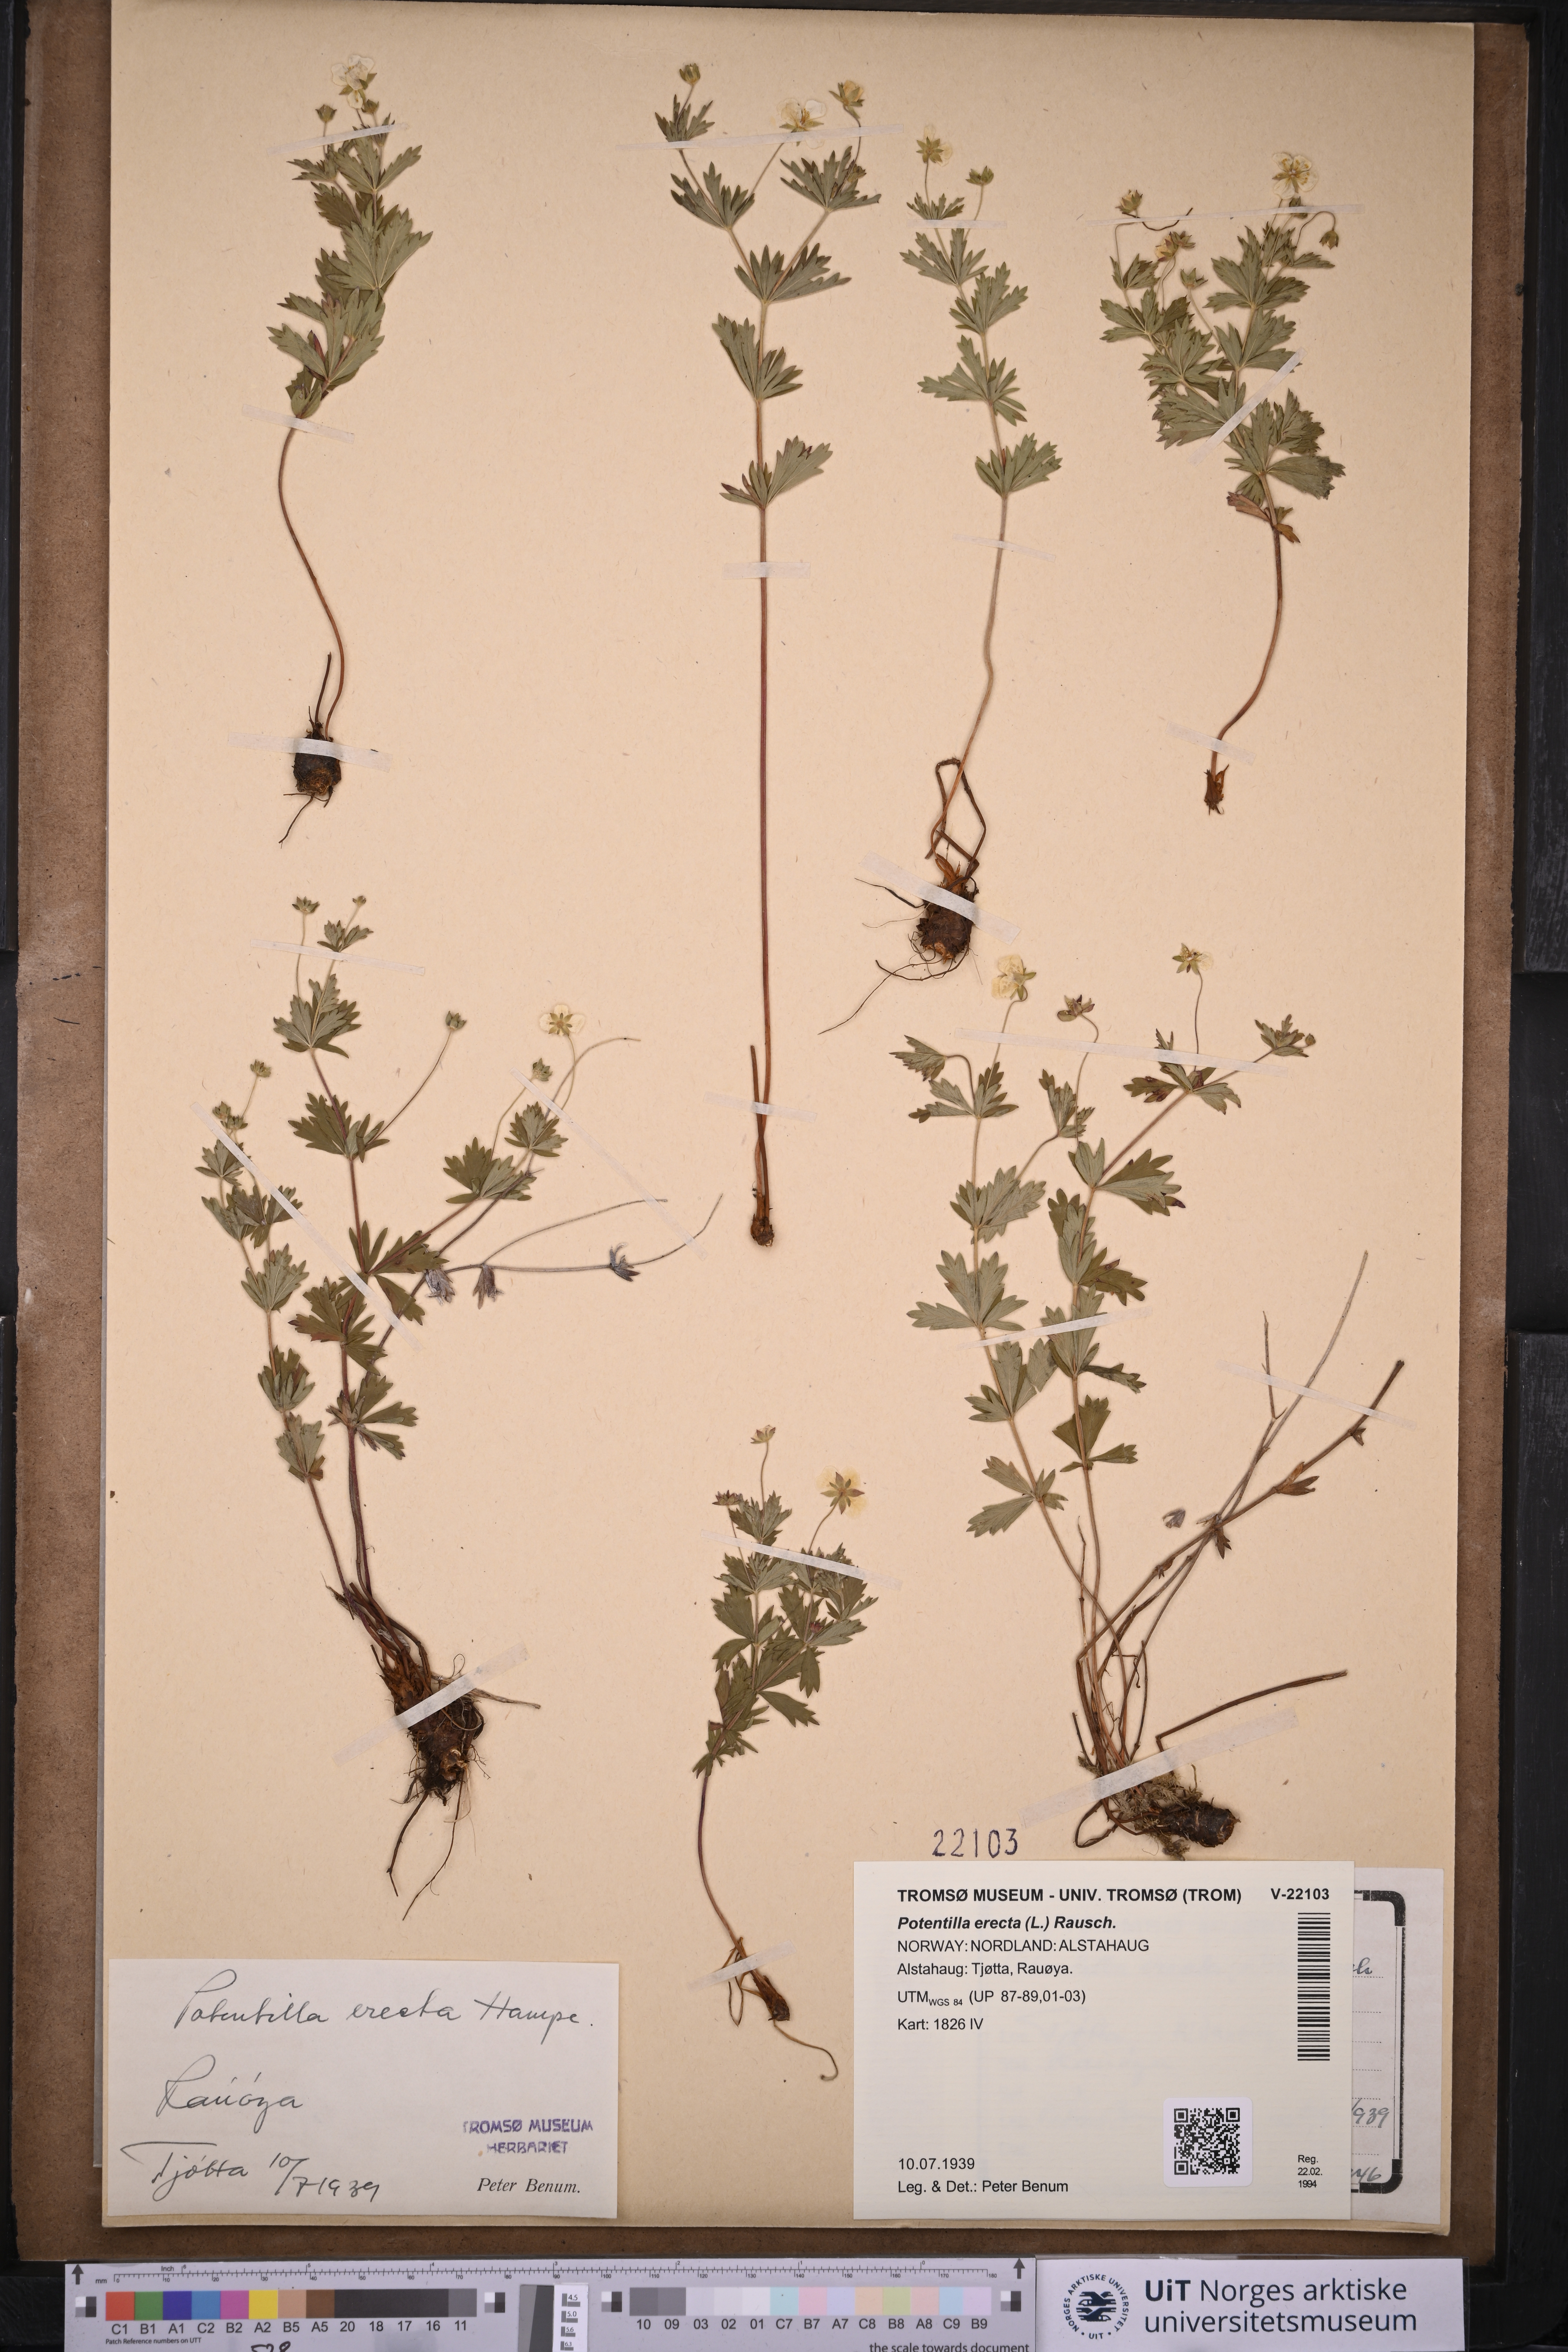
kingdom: Plantae
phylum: Tracheophyta
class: Magnoliopsida
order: Rosales
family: Rosaceae
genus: Potentilla
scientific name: Potentilla erecta
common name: Tormentil
